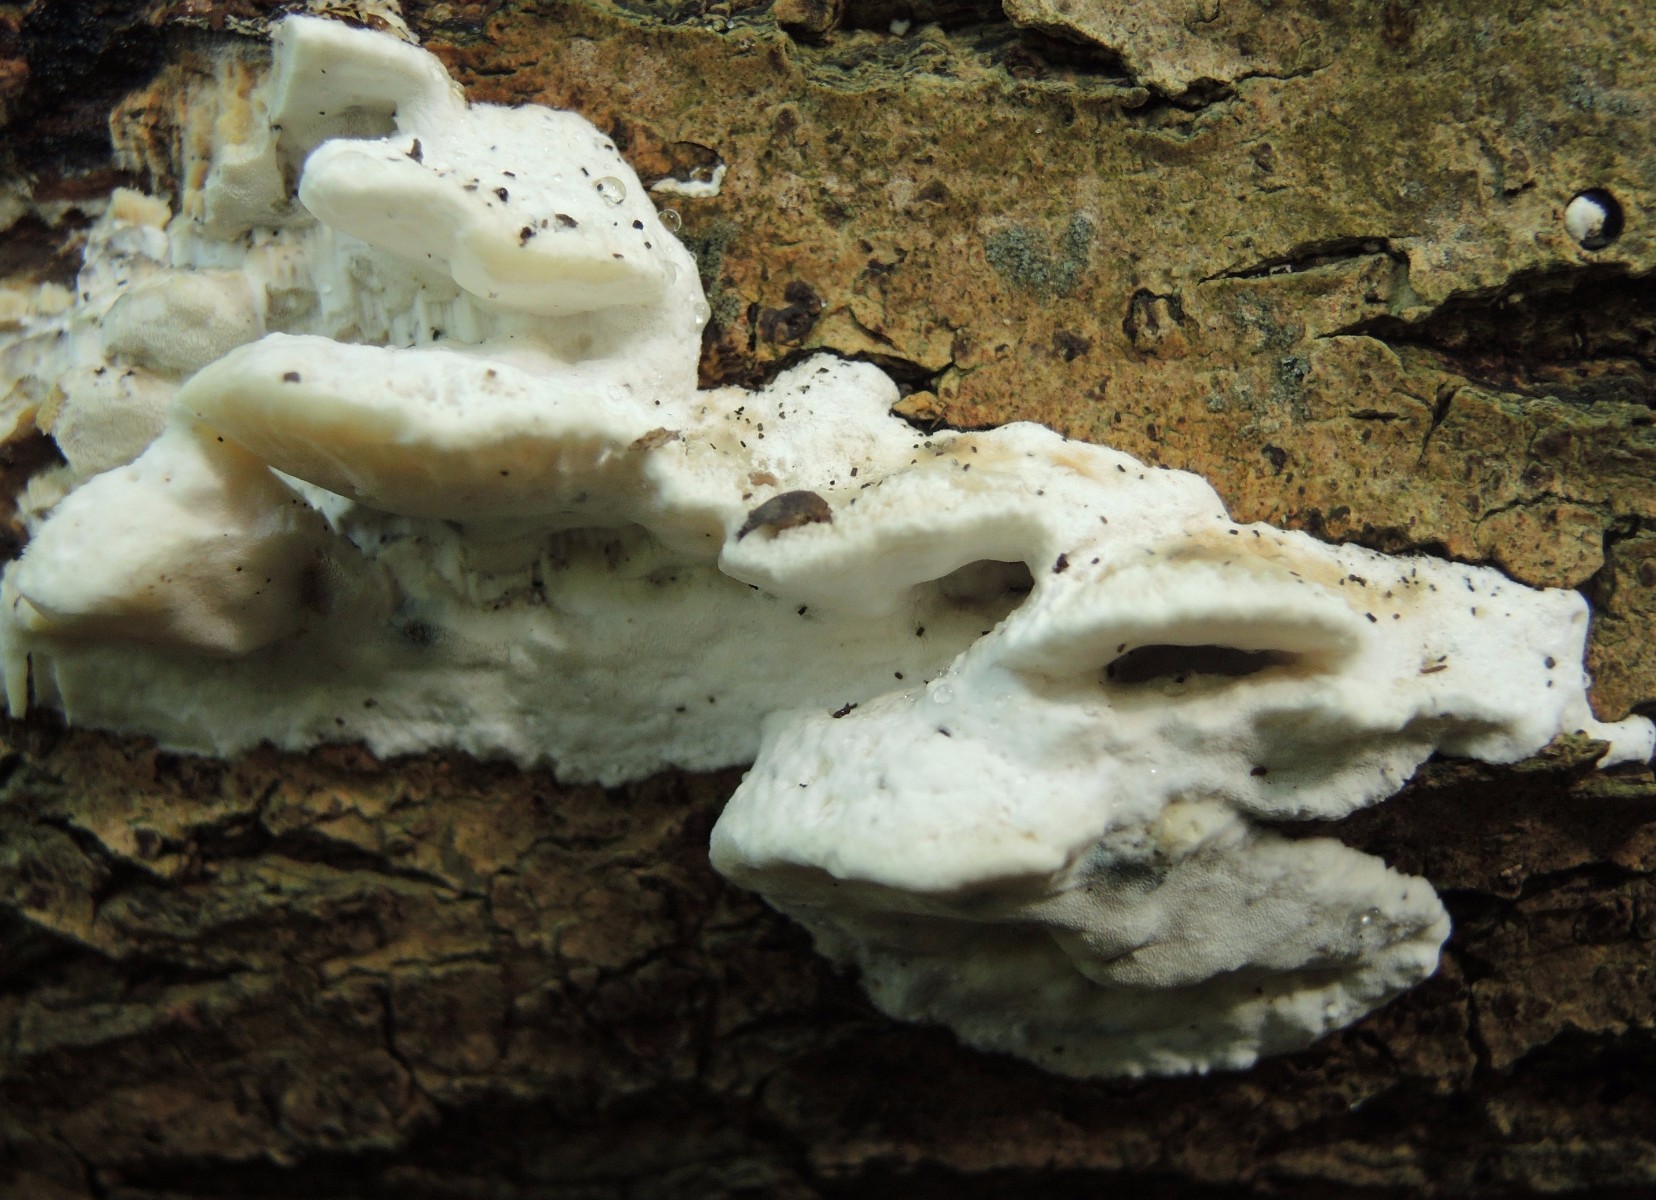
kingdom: Fungi
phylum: Basidiomycota
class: Agaricomycetes
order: Polyporales
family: Incrustoporiaceae
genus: Skeletocutis
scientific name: Skeletocutis nemoralis
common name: stor krystalporesvamp
